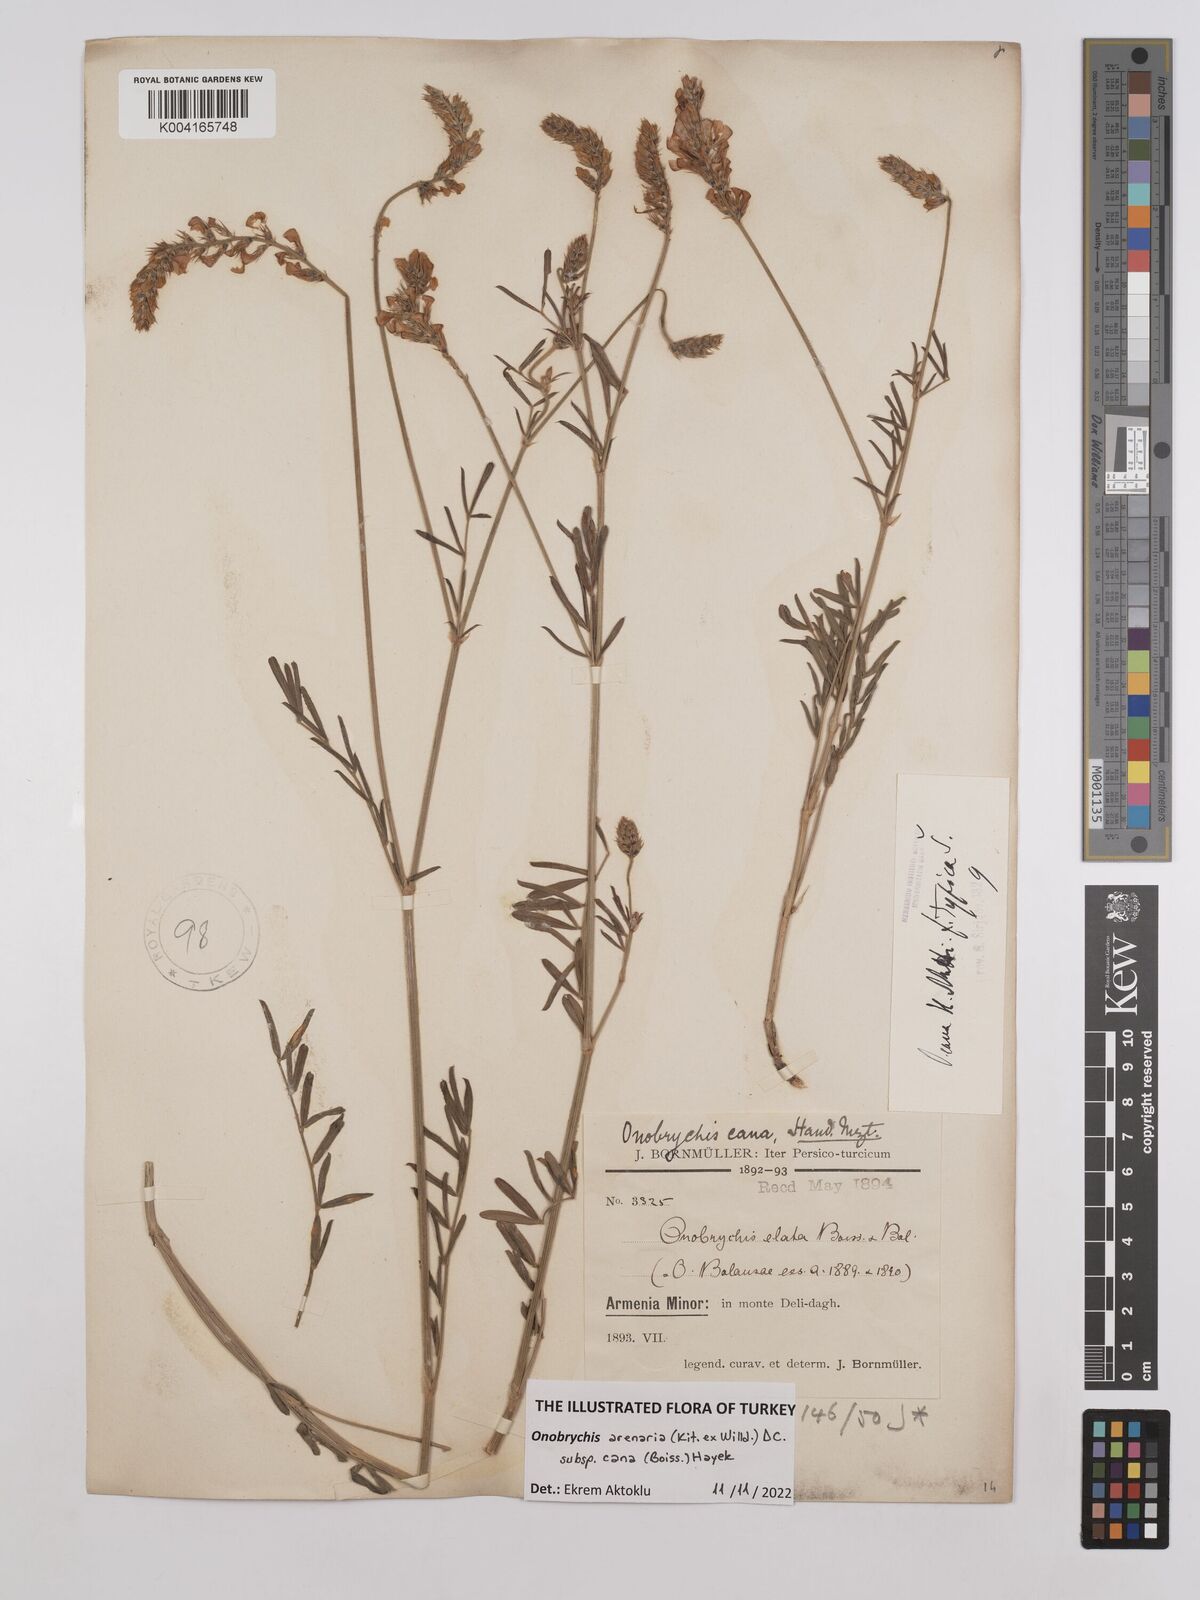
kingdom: Plantae
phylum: Tracheophyta
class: Magnoliopsida
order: Fabales
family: Fabaceae
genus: Onobrychis
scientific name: Onobrychis arenaria
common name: Sand esparcet
